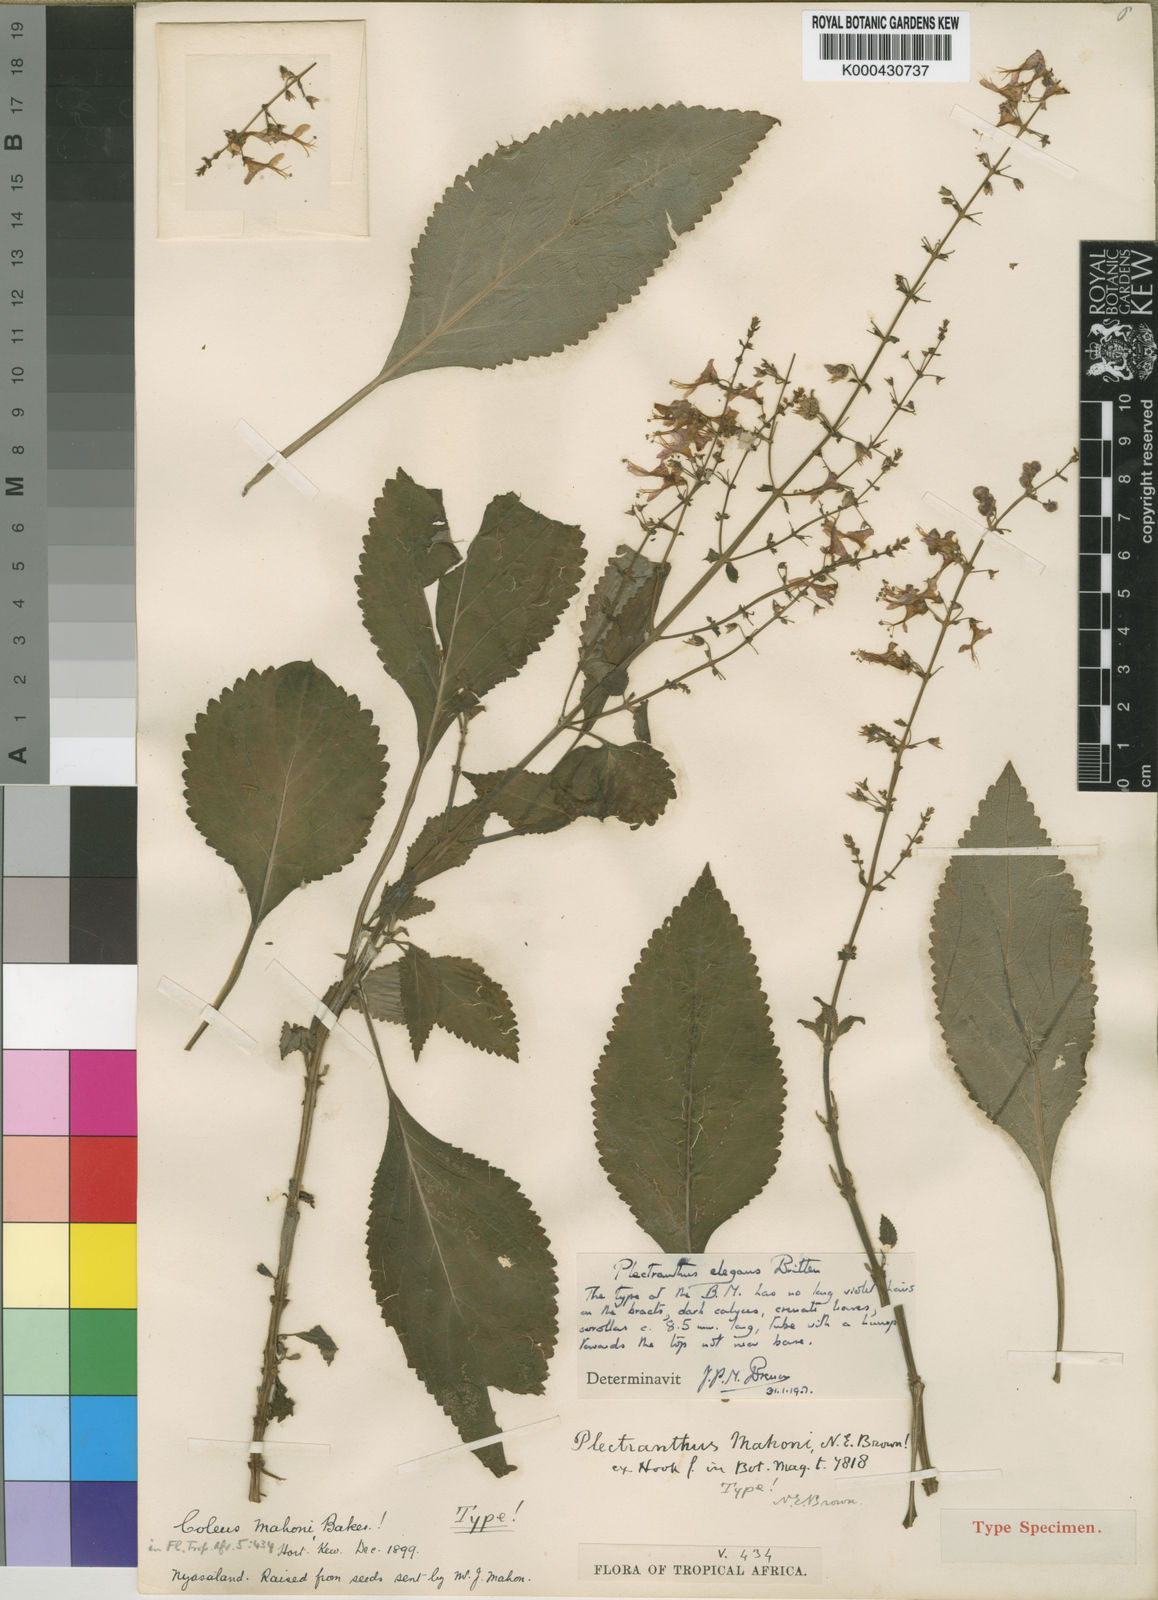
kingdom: Plantae
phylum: Tracheophyta
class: Magnoliopsida
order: Lamiales
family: Lamiaceae
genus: Plectranthus
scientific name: Plectranthus elegans
